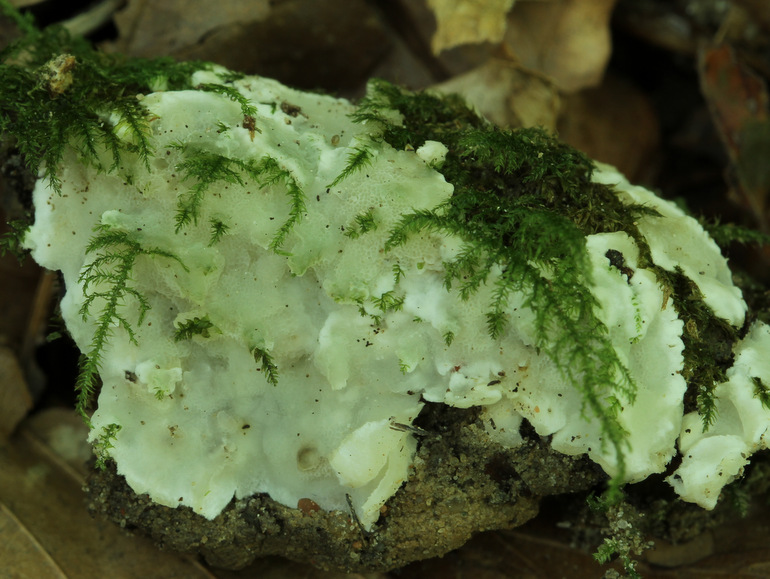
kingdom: Fungi
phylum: Basidiomycota
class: Agaricomycetes
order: Polyporales
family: Meruliaceae
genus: Physisporinus
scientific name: Physisporinus vitreus
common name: mastesvamp
